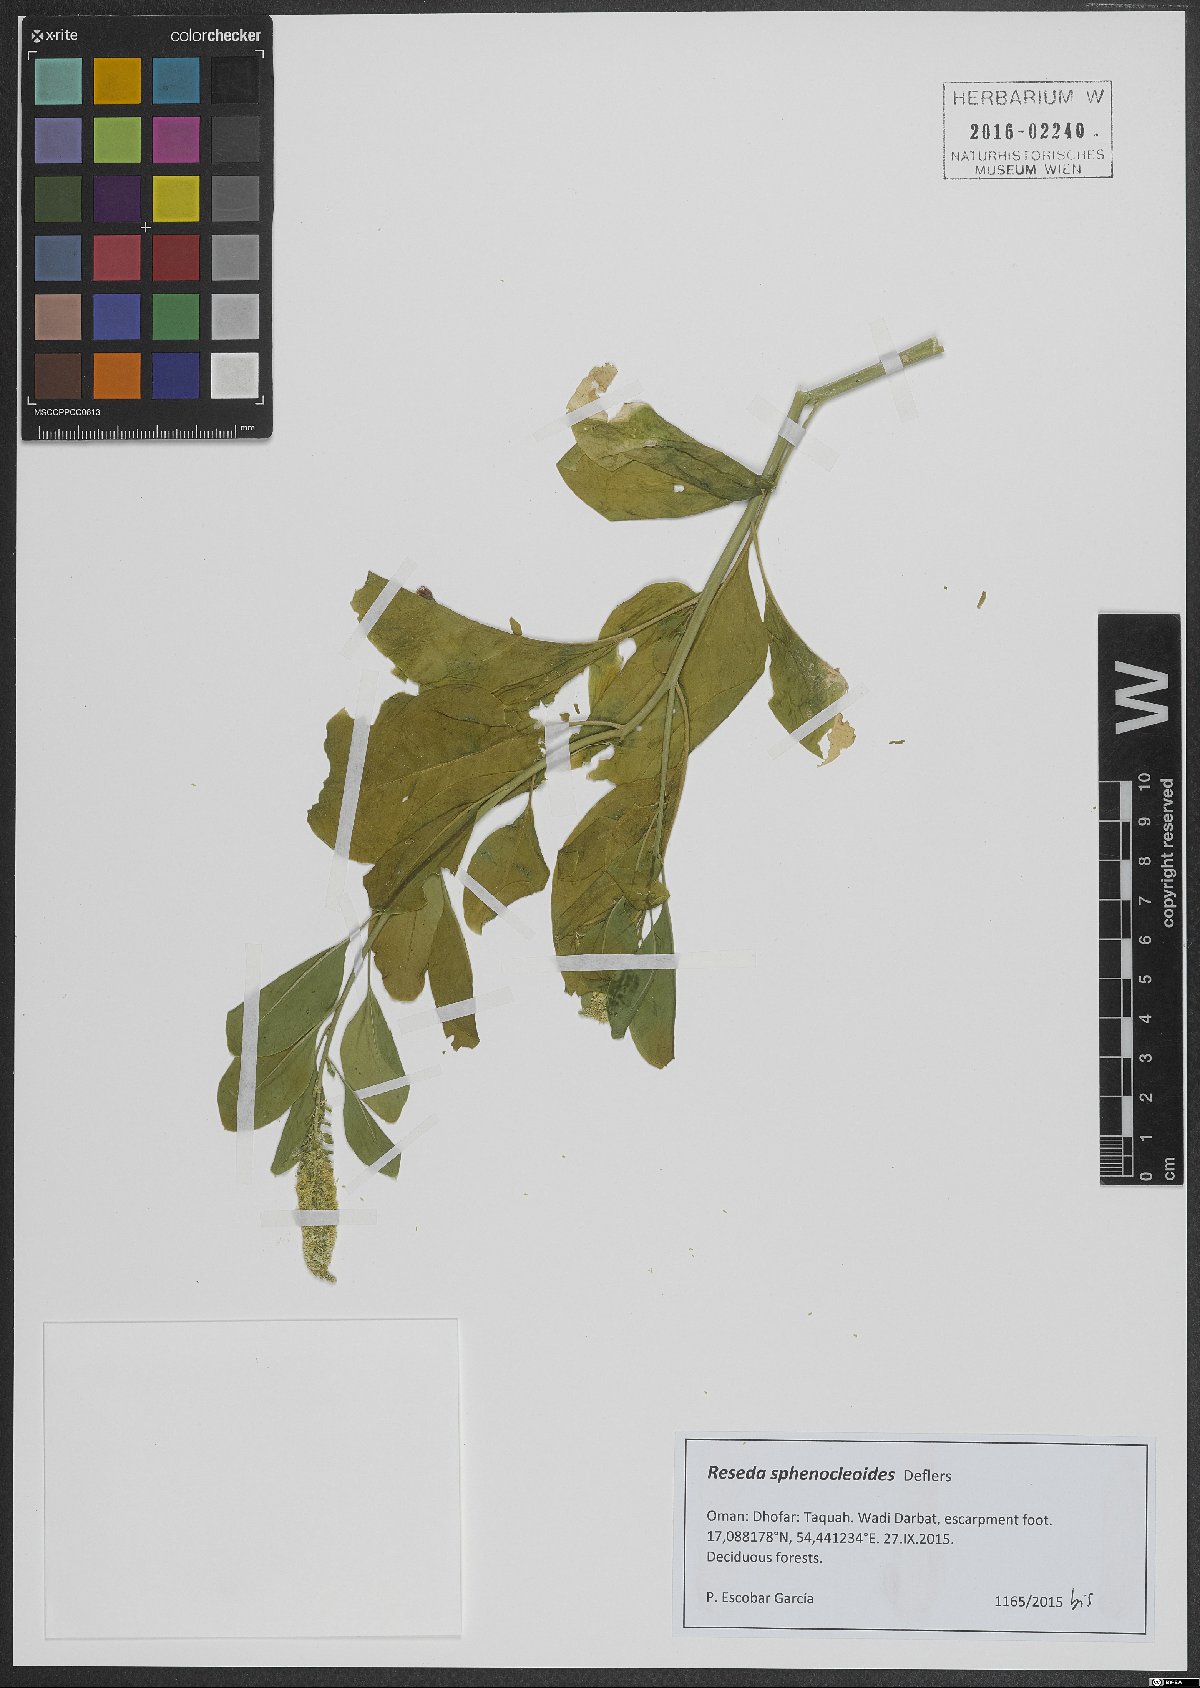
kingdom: Plantae
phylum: Tracheophyta
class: Magnoliopsida
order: Brassicales
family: Resedaceae
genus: Reseda
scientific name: Reseda sphenocleoides
